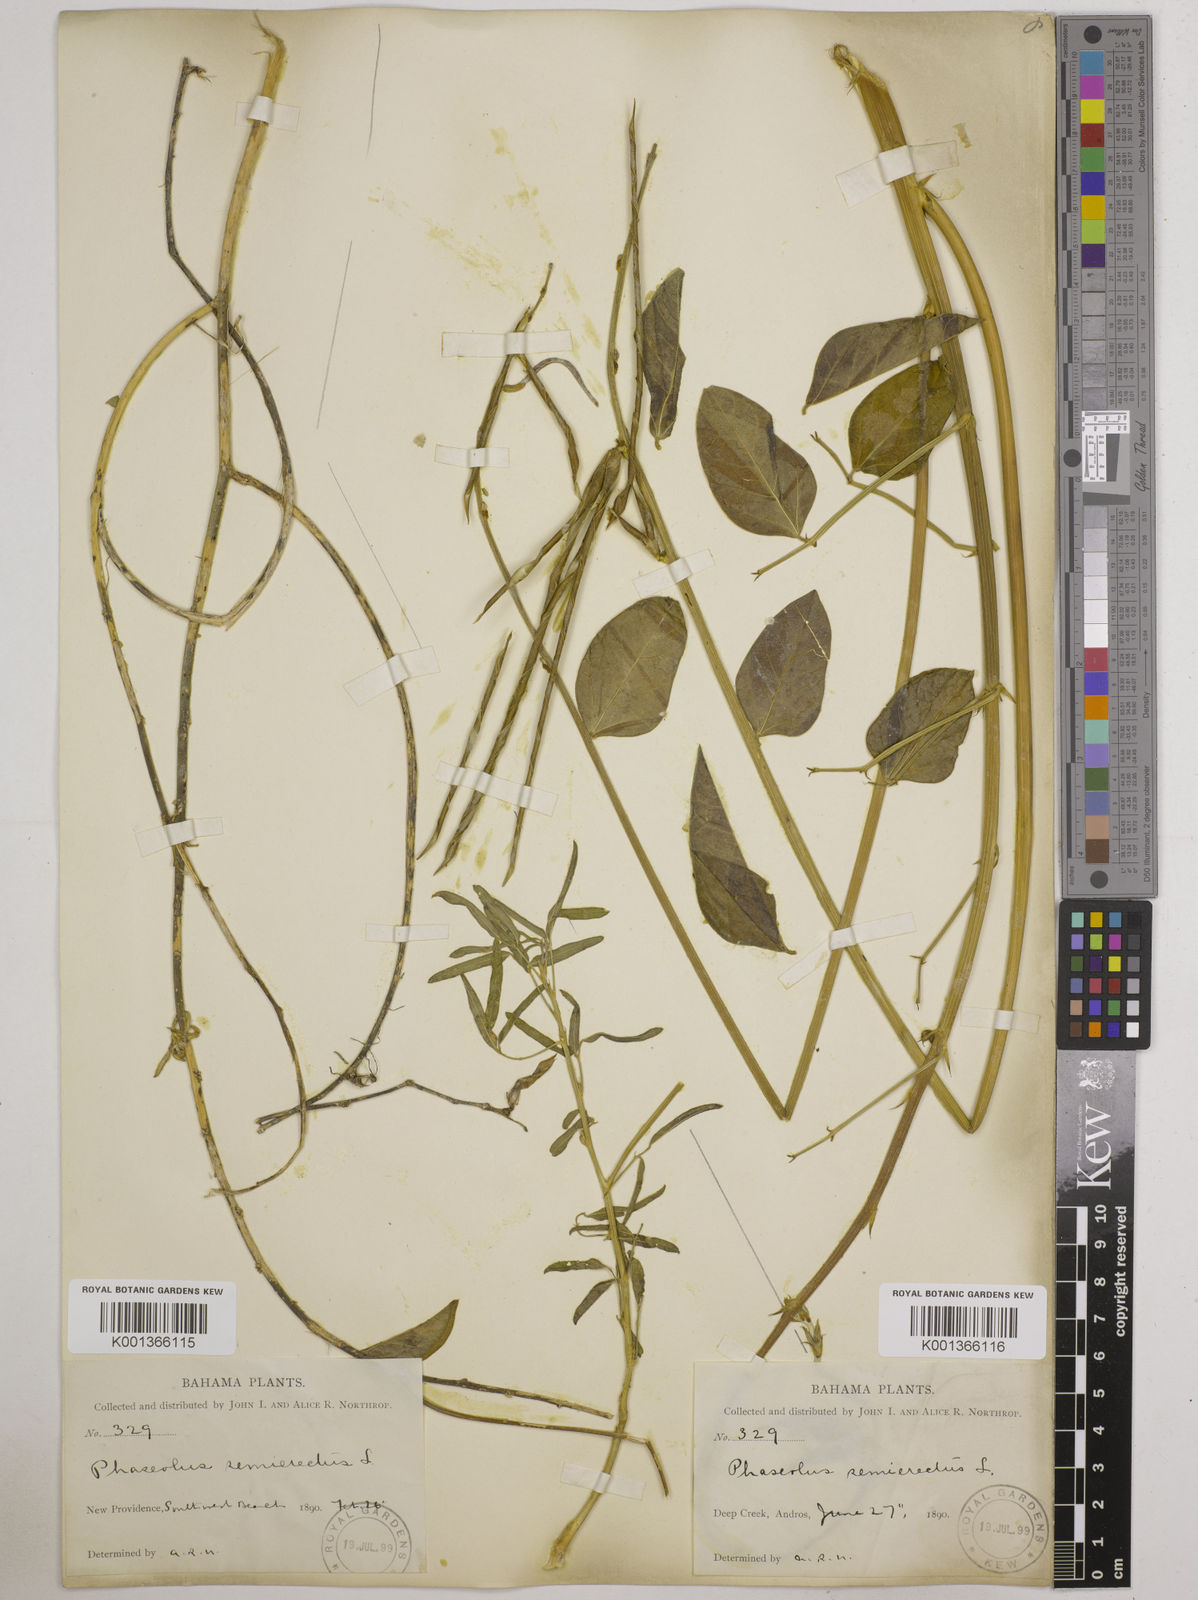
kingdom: Plantae
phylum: Tracheophyta
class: Magnoliopsida
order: Fabales
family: Fabaceae
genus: Macroptilium
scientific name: Macroptilium lathyroides
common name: Wild bushbean
